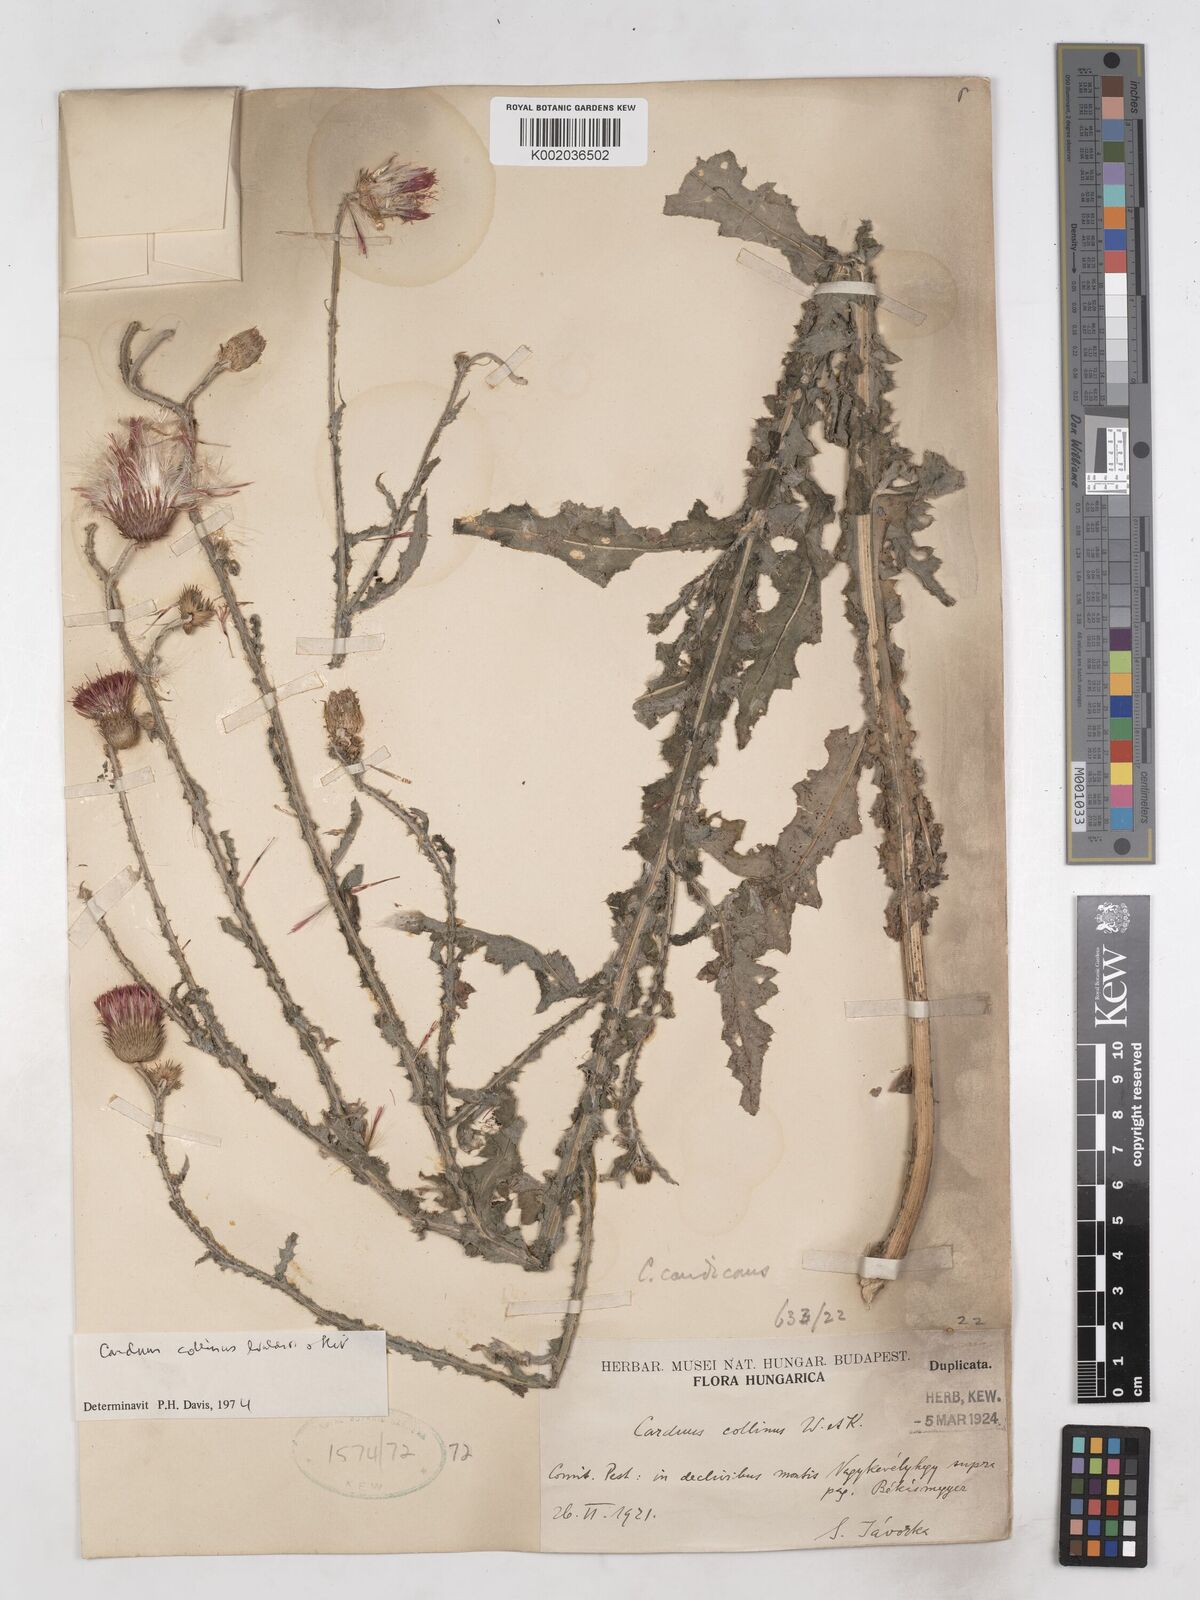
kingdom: Plantae
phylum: Tracheophyta
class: Magnoliopsida
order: Asterales
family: Asteraceae
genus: Carduus
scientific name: Carduus collinus
